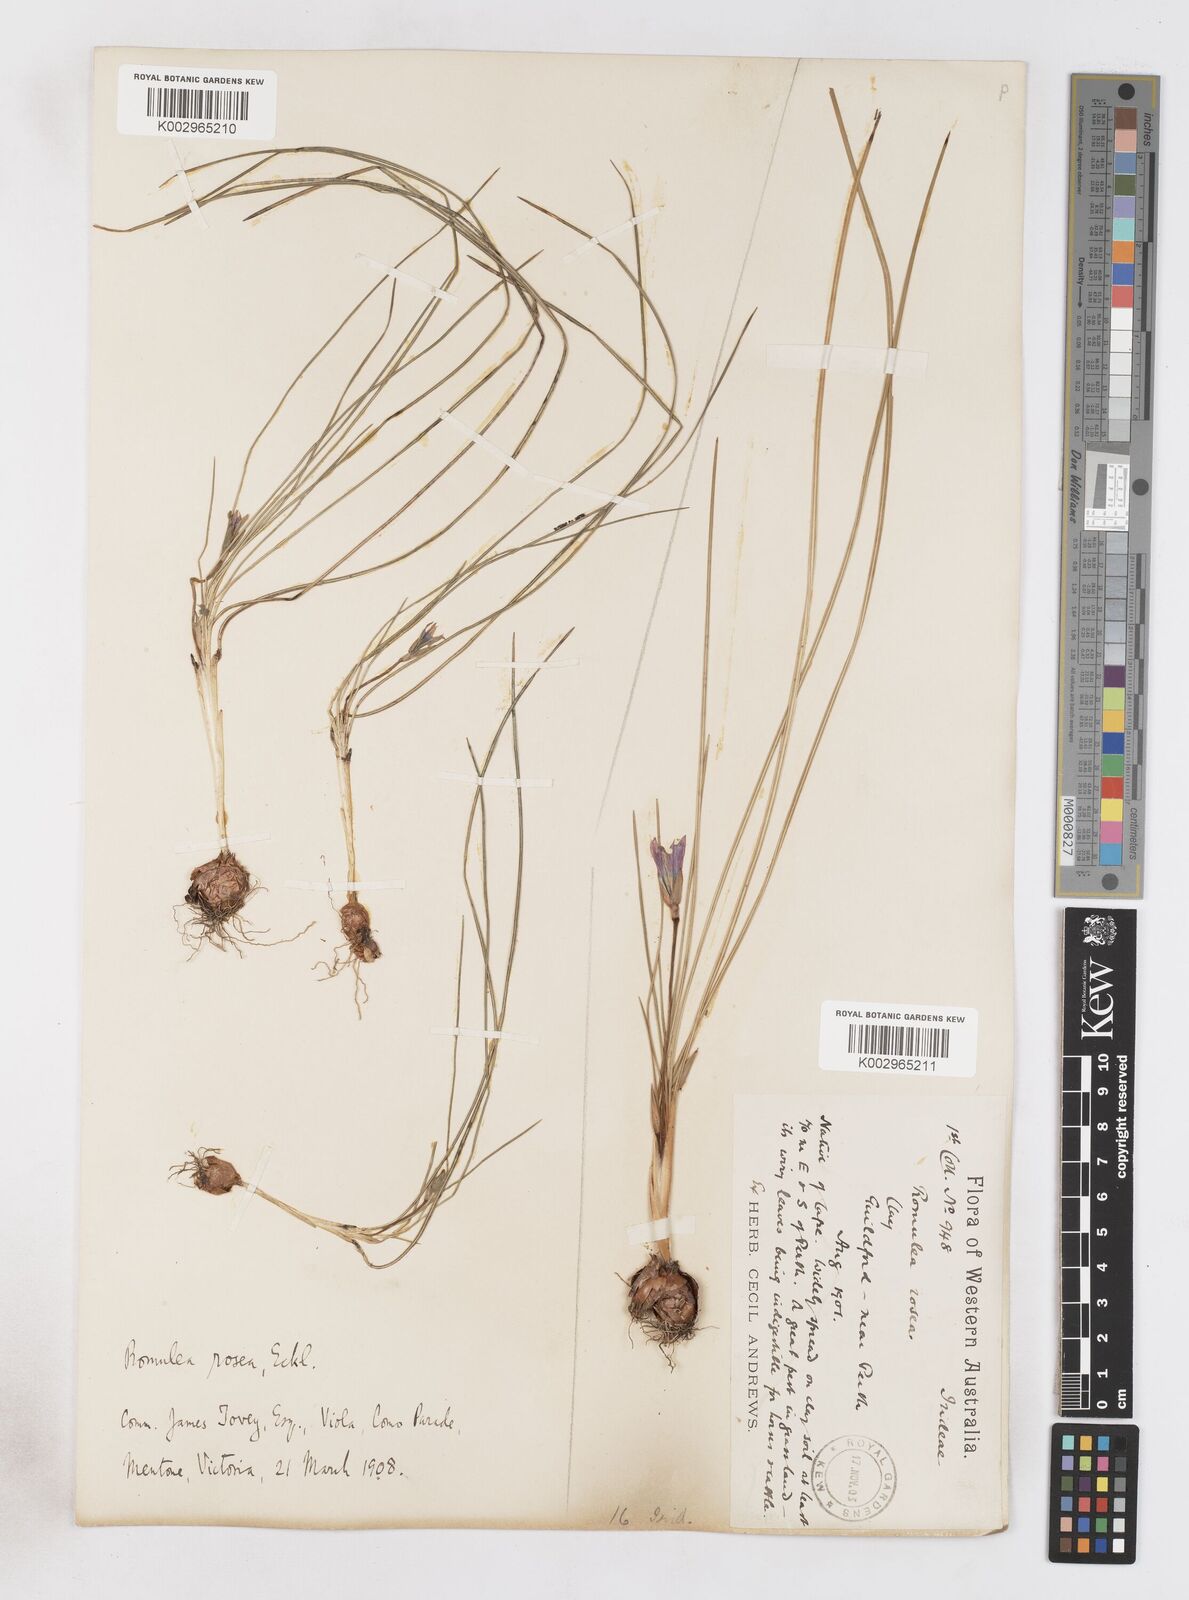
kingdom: Plantae
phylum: Tracheophyta
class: Liliopsida
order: Asparagales
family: Iridaceae
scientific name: Iridaceae
